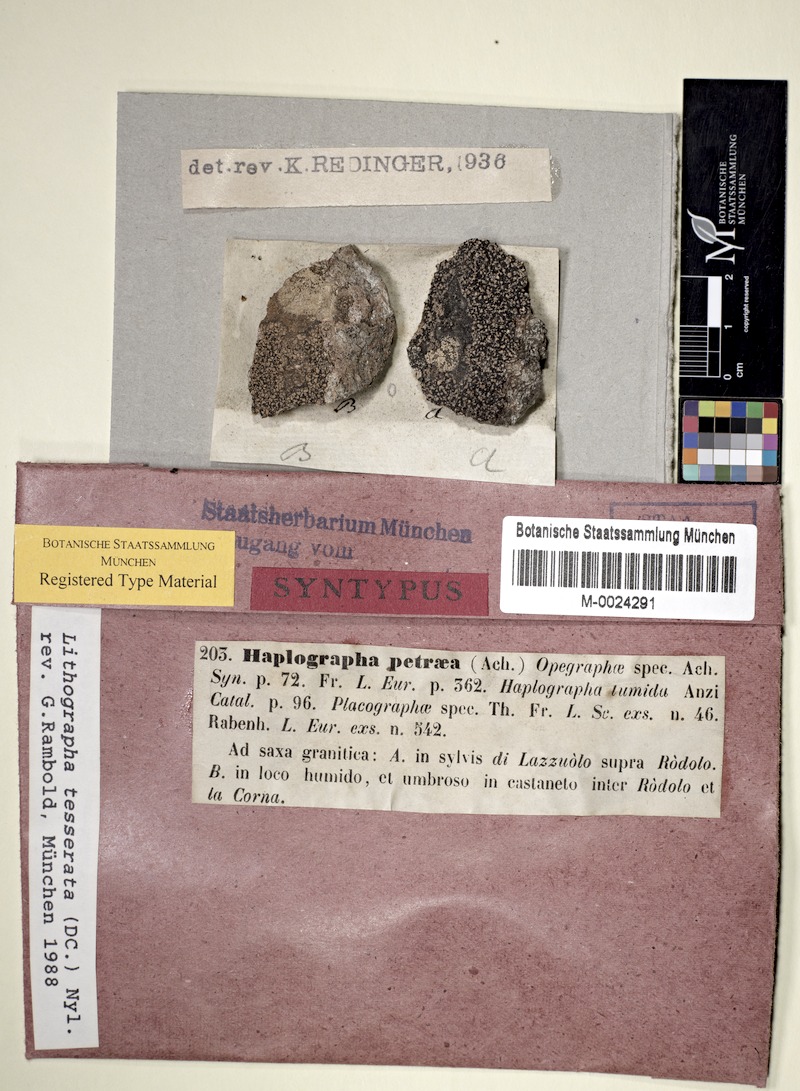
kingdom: Fungi
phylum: Ascomycota
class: Lecanoromycetes
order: Baeomycetales
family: Xylographaceae
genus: Lithographa
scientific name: Lithographa tesserata
